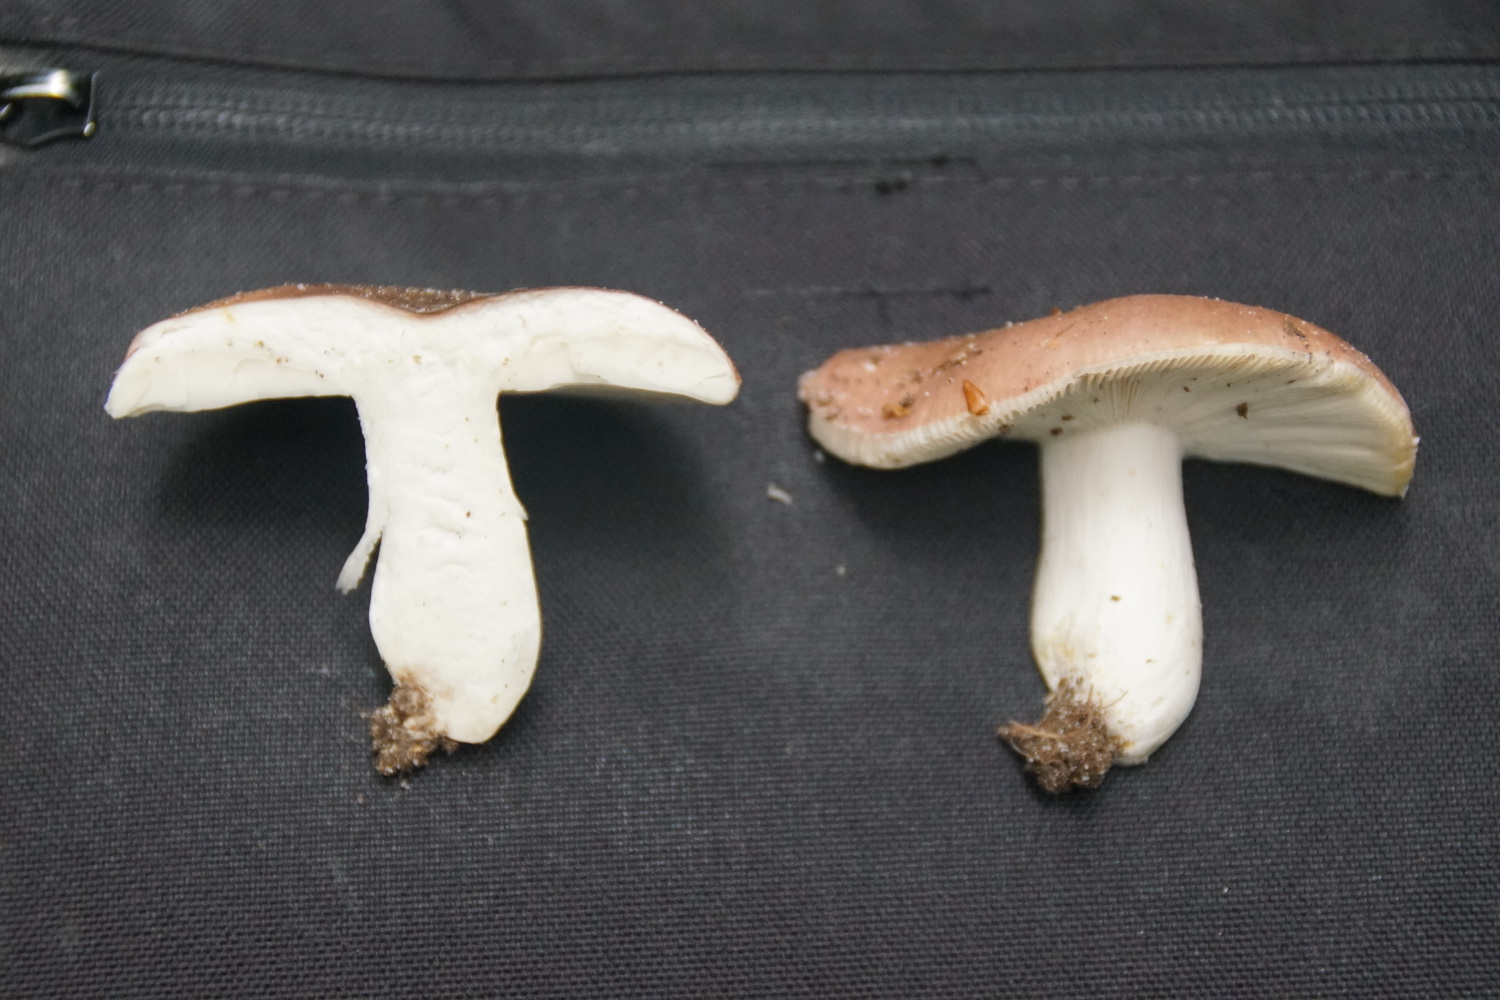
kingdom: Fungi
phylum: Basidiomycota
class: Agaricomycetes
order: Russulales
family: Russulaceae
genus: Russula
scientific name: Russula vesca
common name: spiselig skørhat
